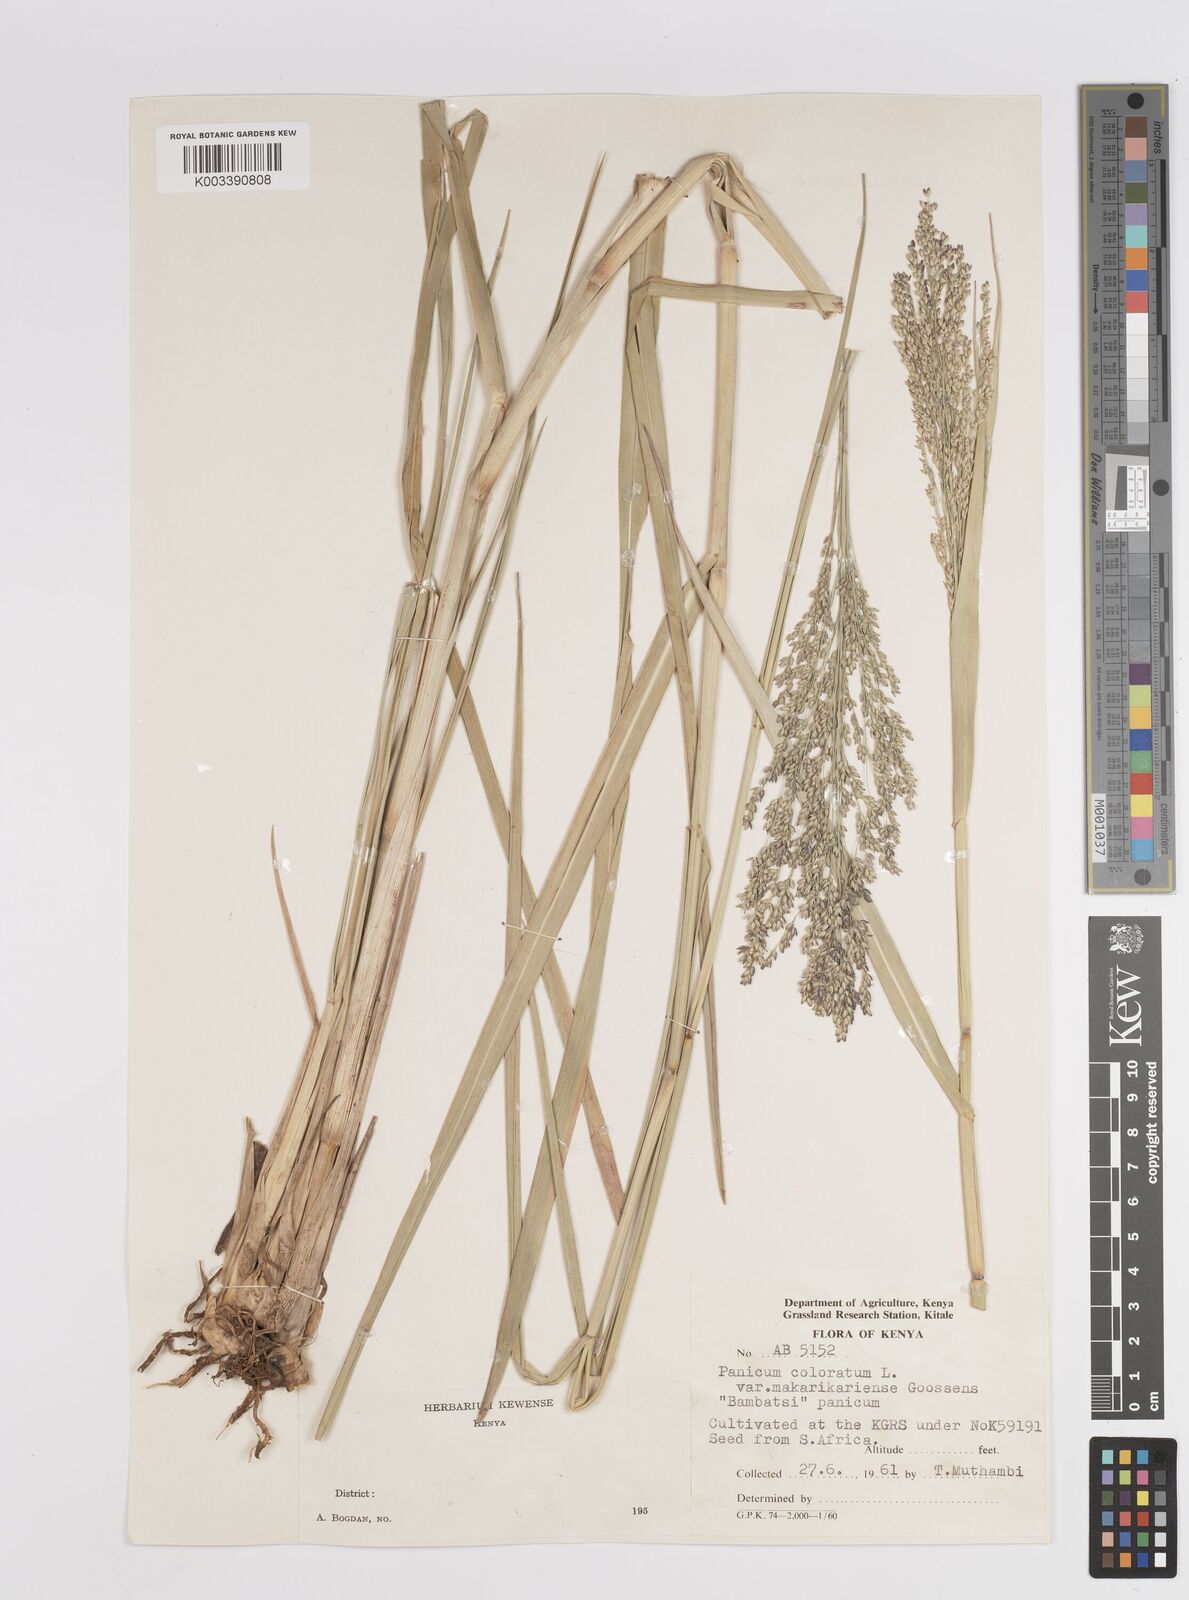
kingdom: Plantae
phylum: Tracheophyta
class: Liliopsida
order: Poales
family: Poaceae
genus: Panicum
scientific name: Panicum coloratum
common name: Kleingrass
